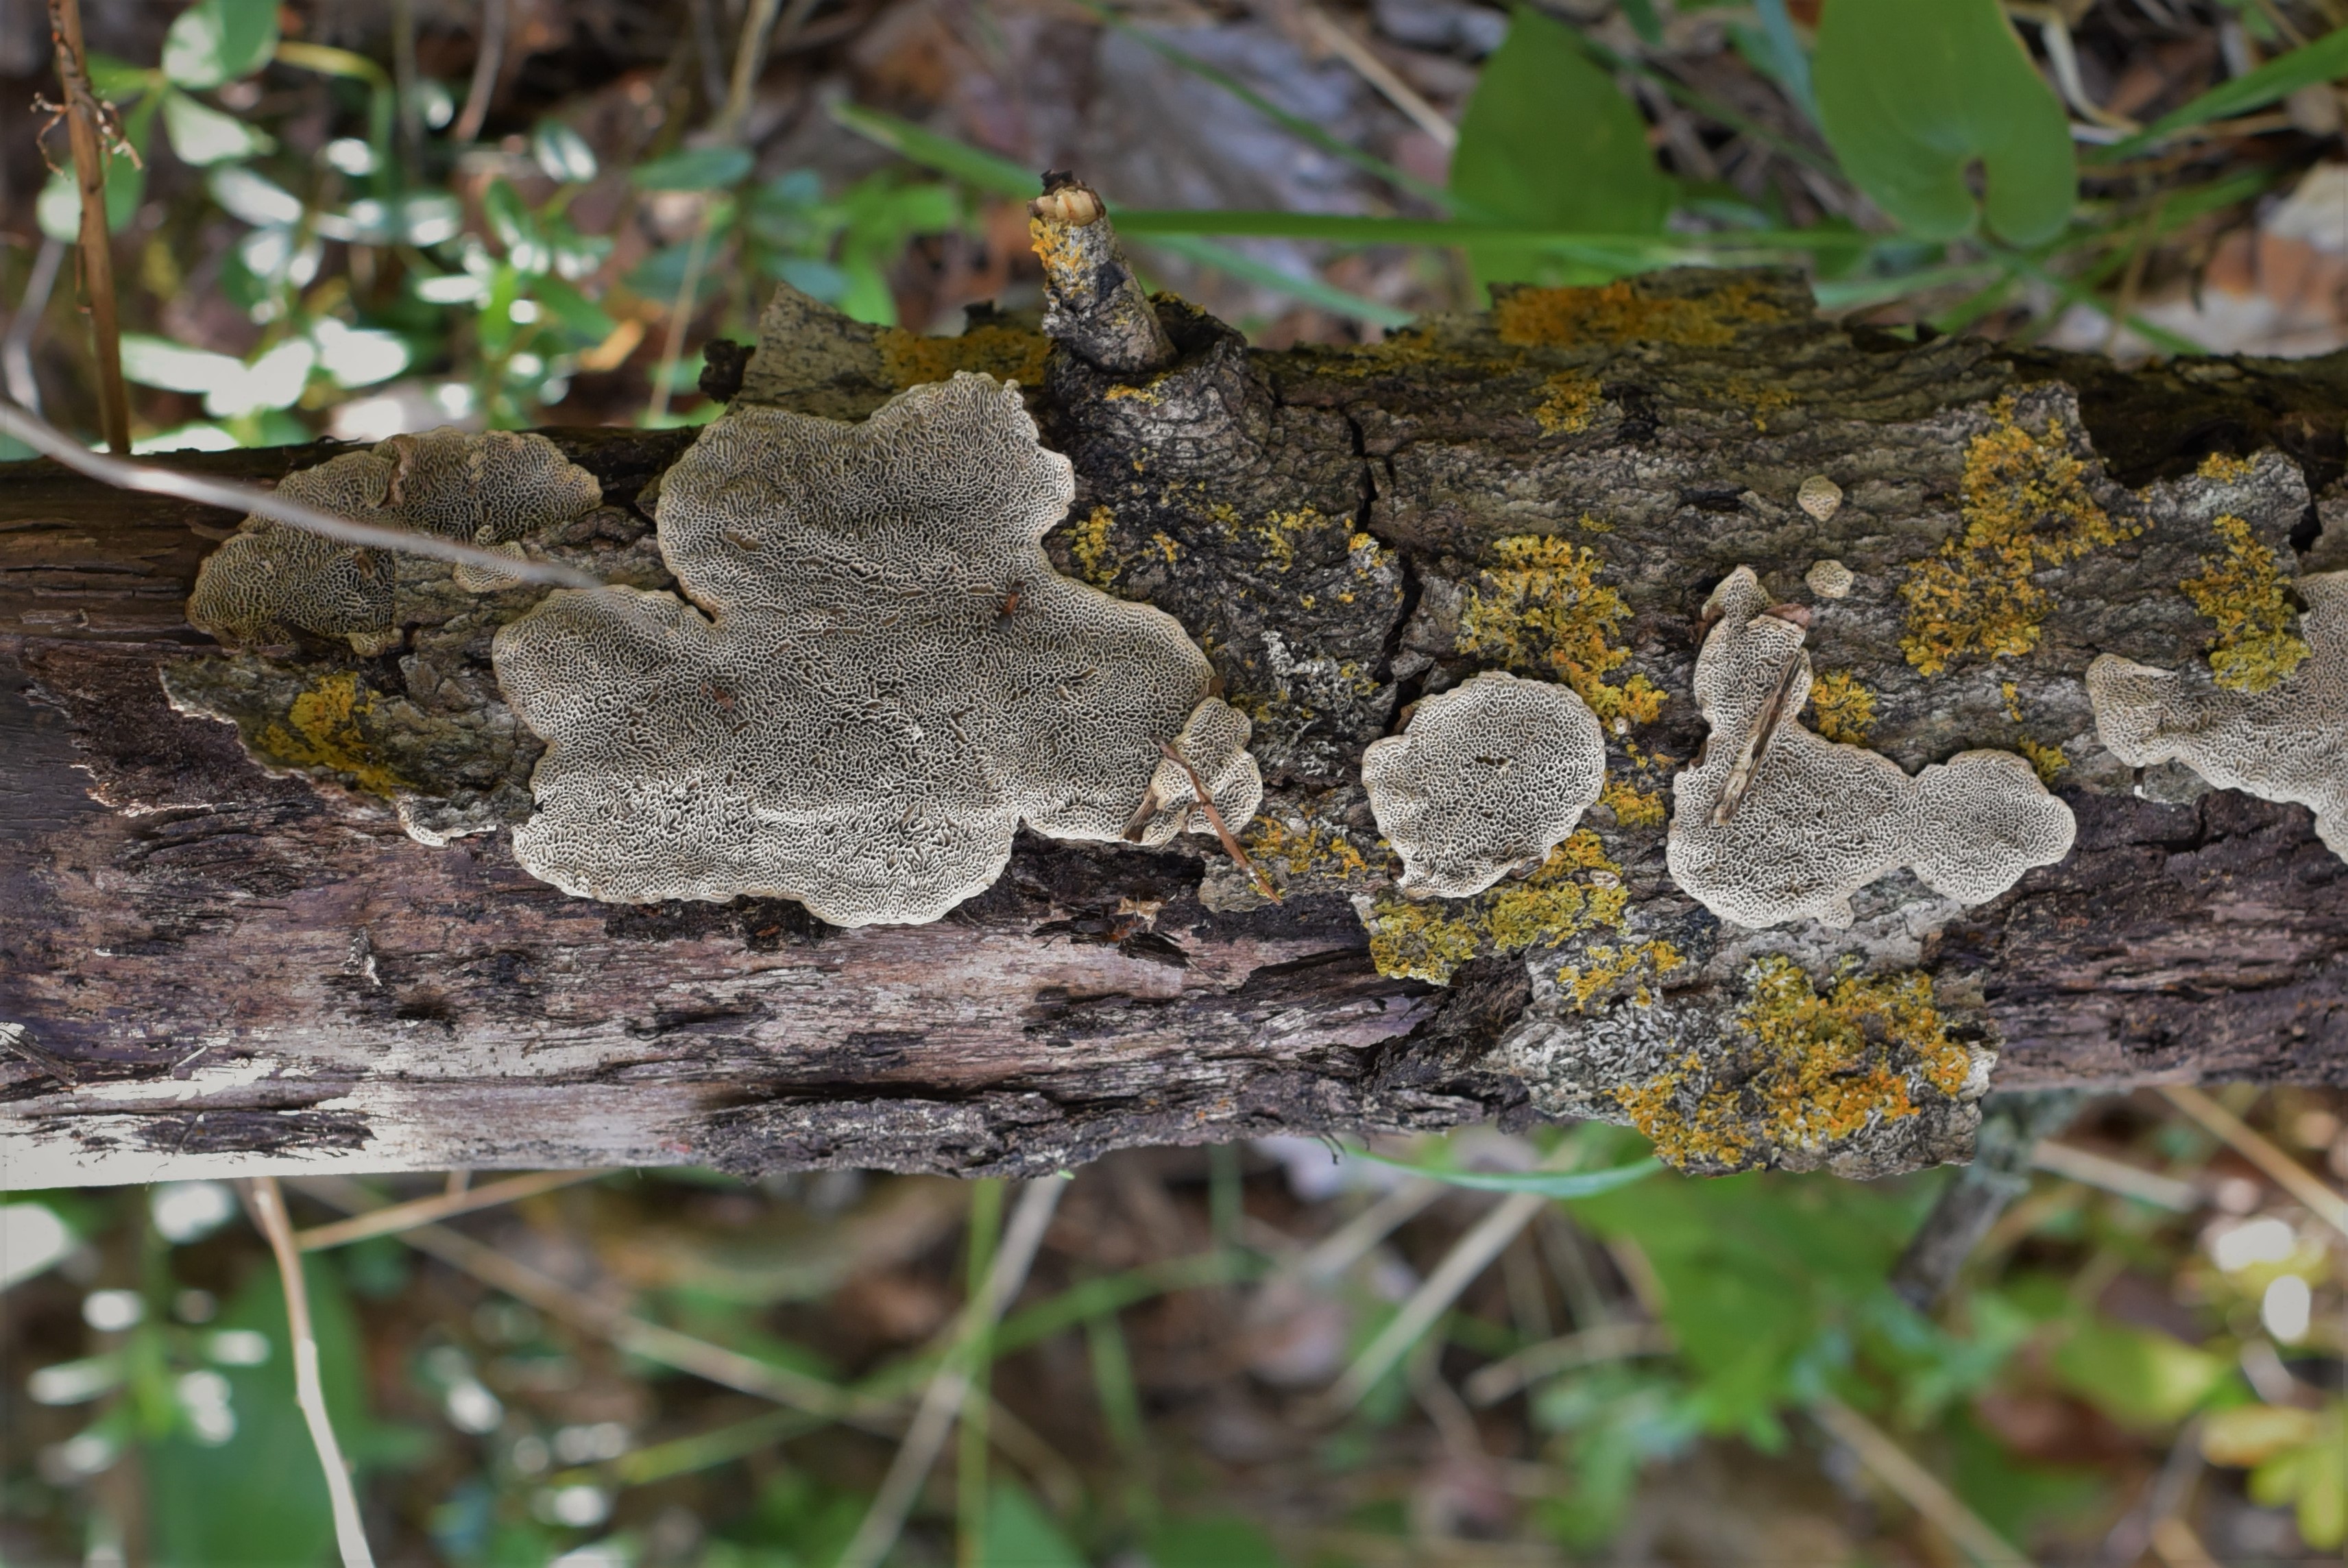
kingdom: Fungi
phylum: Basidiomycota
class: Agaricomycetes
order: Polyporales
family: Polyporaceae
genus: Podofomes
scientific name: Podofomes mollis
